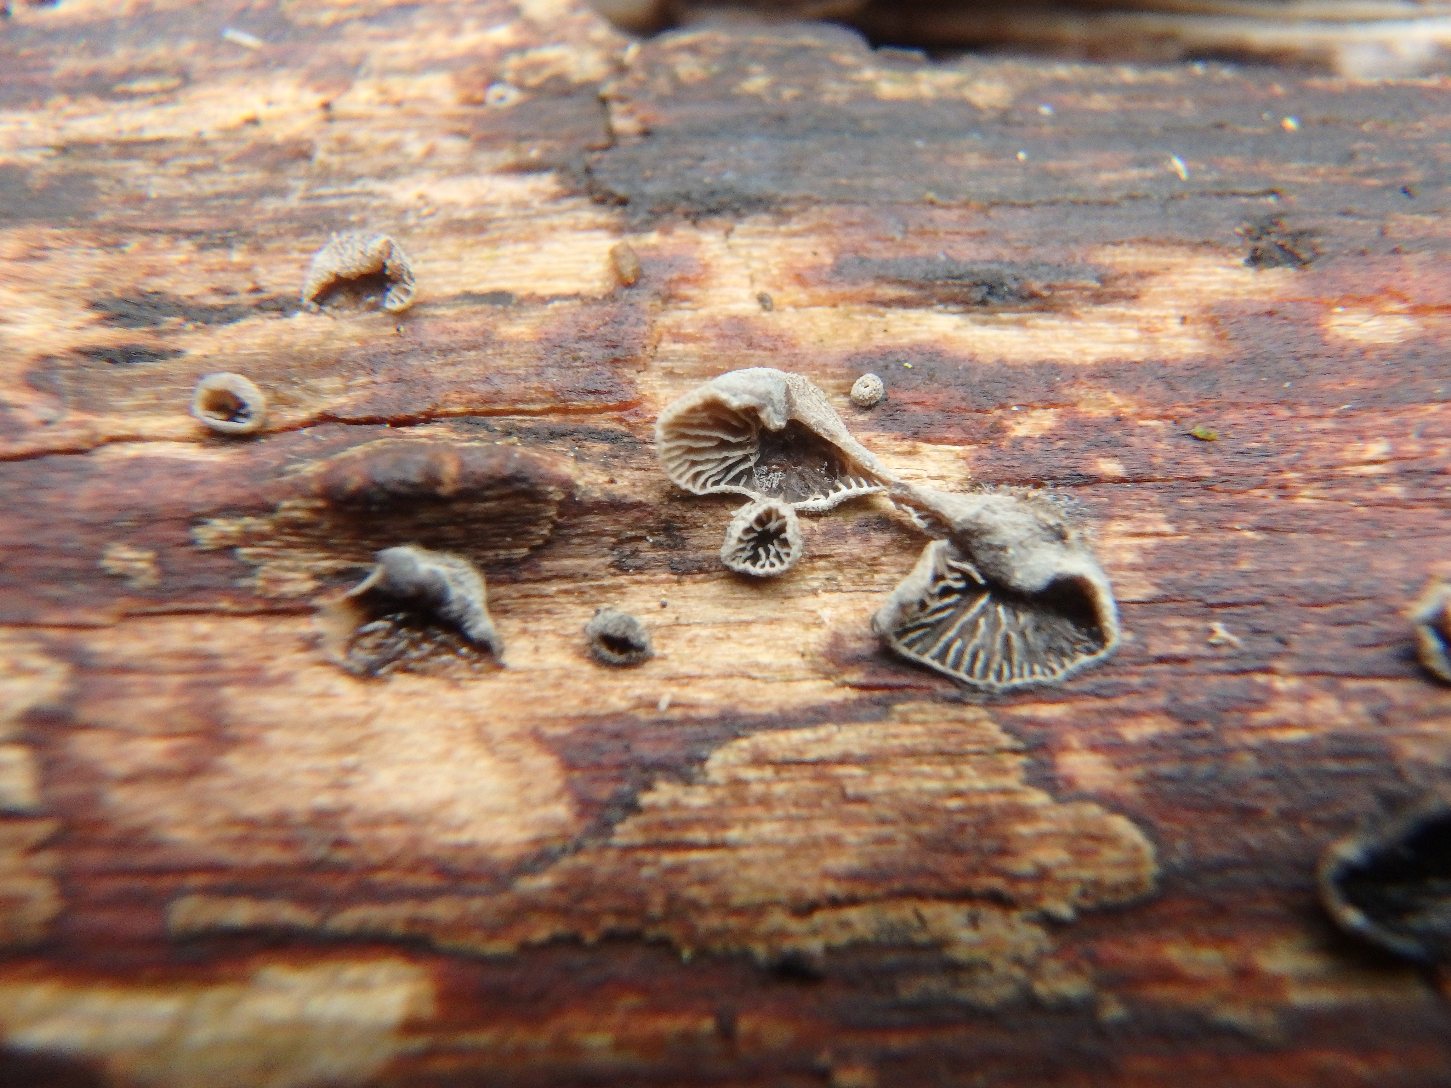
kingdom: Fungi
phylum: Basidiomycota
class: Agaricomycetes
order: Agaricales
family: Pleurotaceae
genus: Resupinatus
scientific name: Resupinatus applicatus
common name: lysfiltet barkhat
